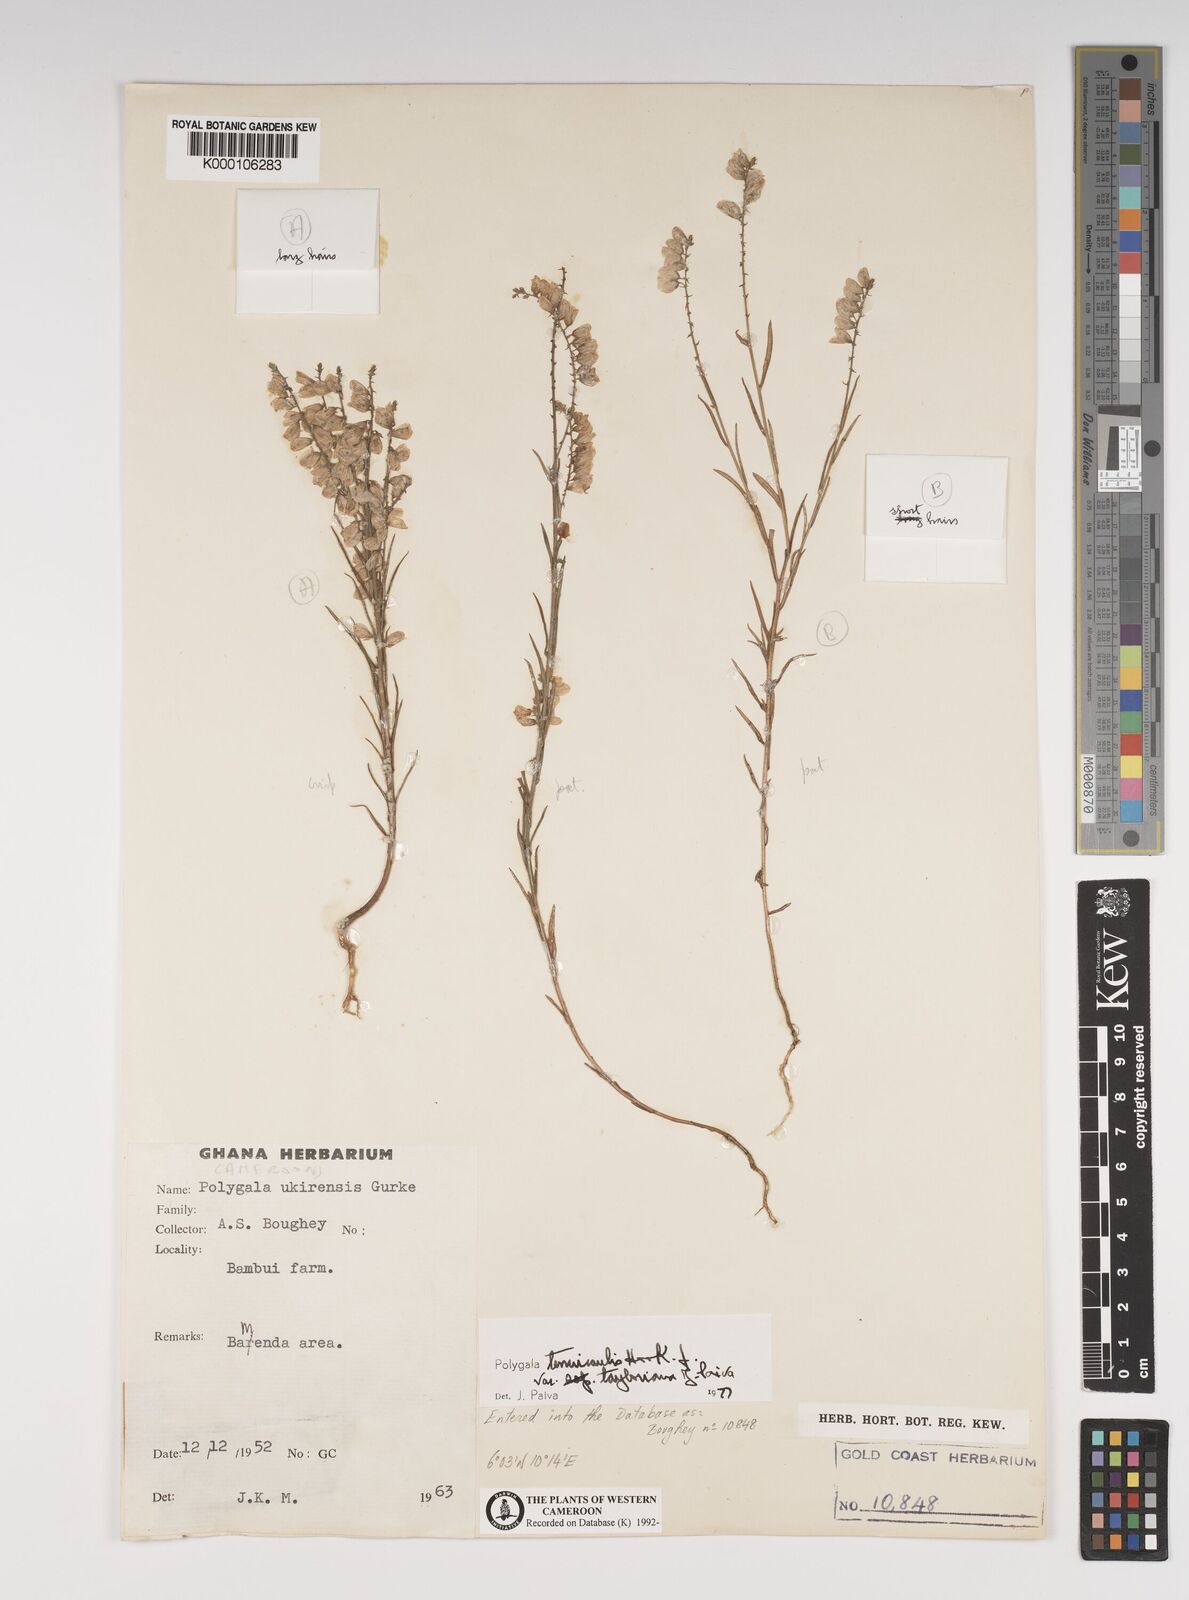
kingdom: Plantae
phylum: Tracheophyta
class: Magnoliopsida
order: Fabales
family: Polygalaceae
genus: Polygala
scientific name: Polygala tenuicaulis
